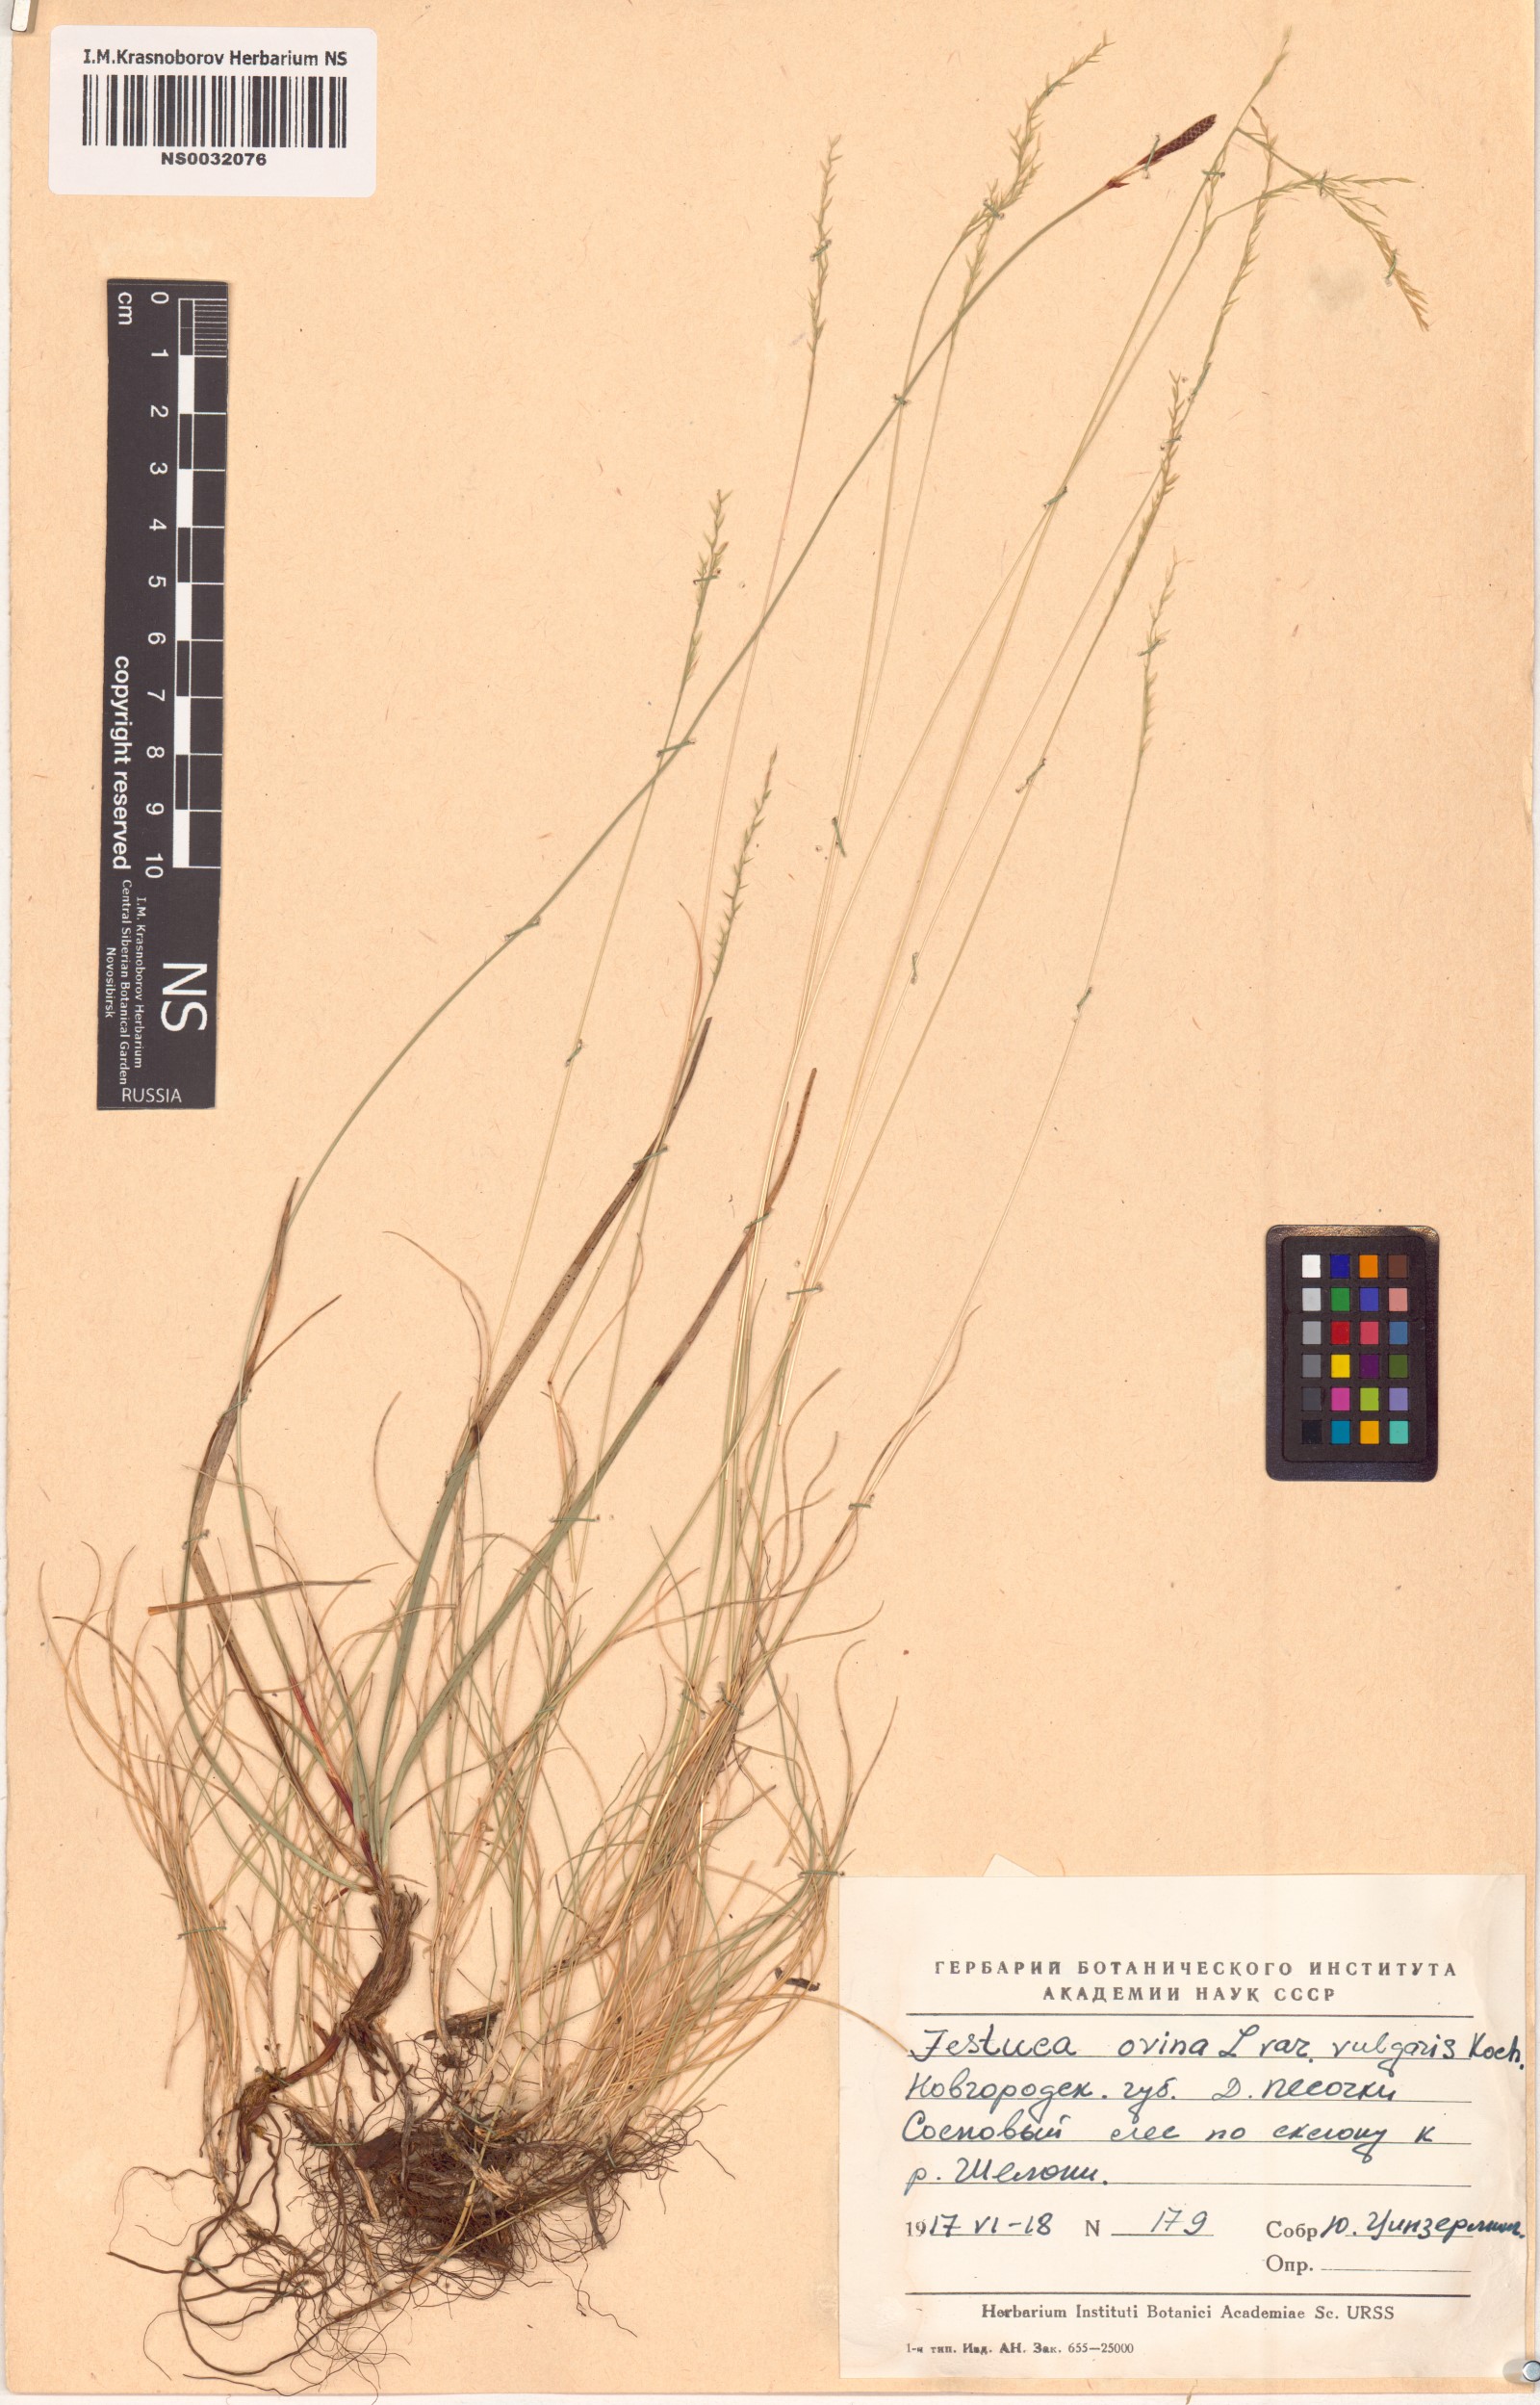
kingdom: Plantae
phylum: Tracheophyta
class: Liliopsida
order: Poales
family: Poaceae
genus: Festuca
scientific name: Festuca ovina
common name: Sheep fescue
